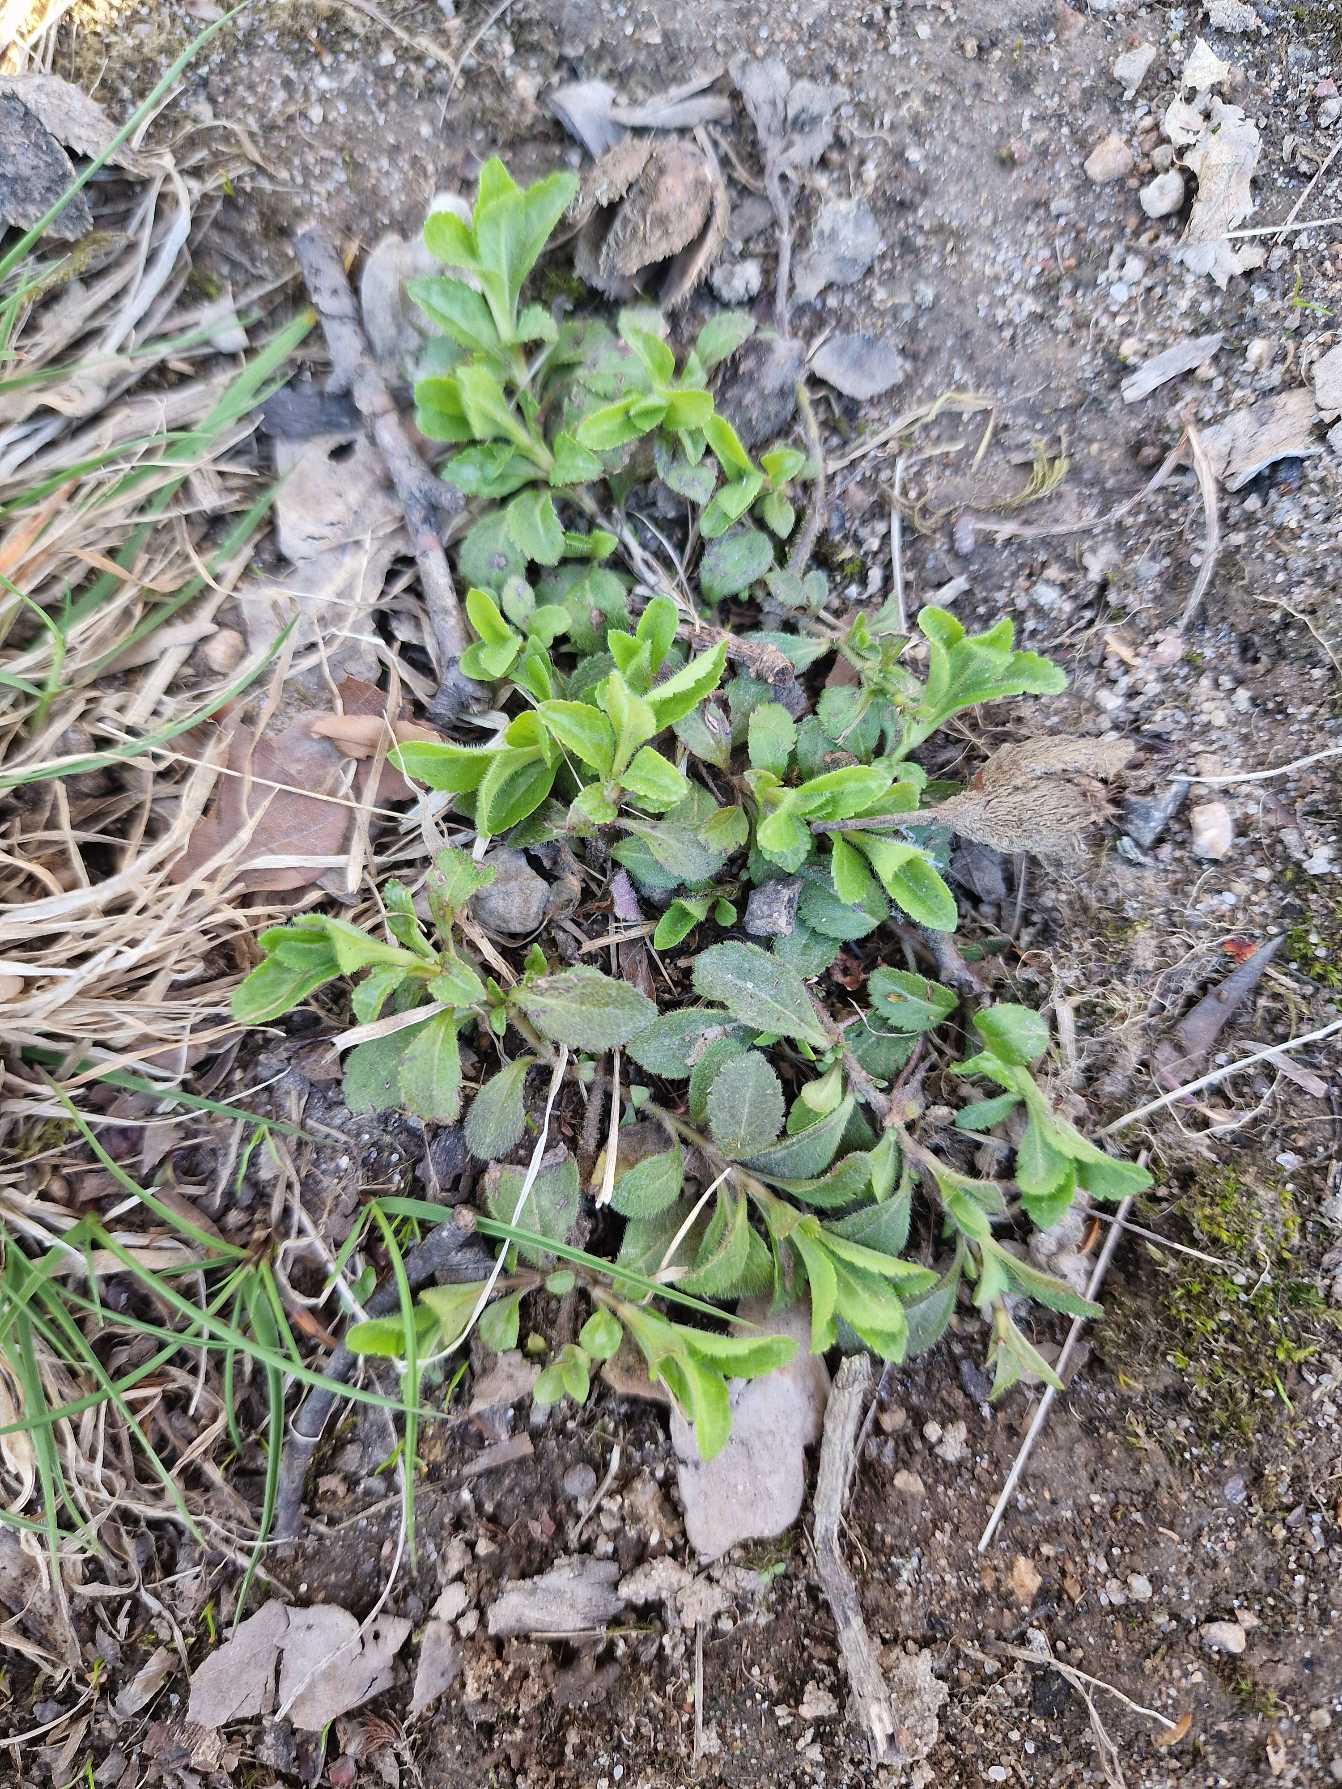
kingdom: Plantae
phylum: Tracheophyta
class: Magnoliopsida
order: Lamiales
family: Plantaginaceae
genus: Veronica
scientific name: Veronica officinalis
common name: Læge-ærenpris
